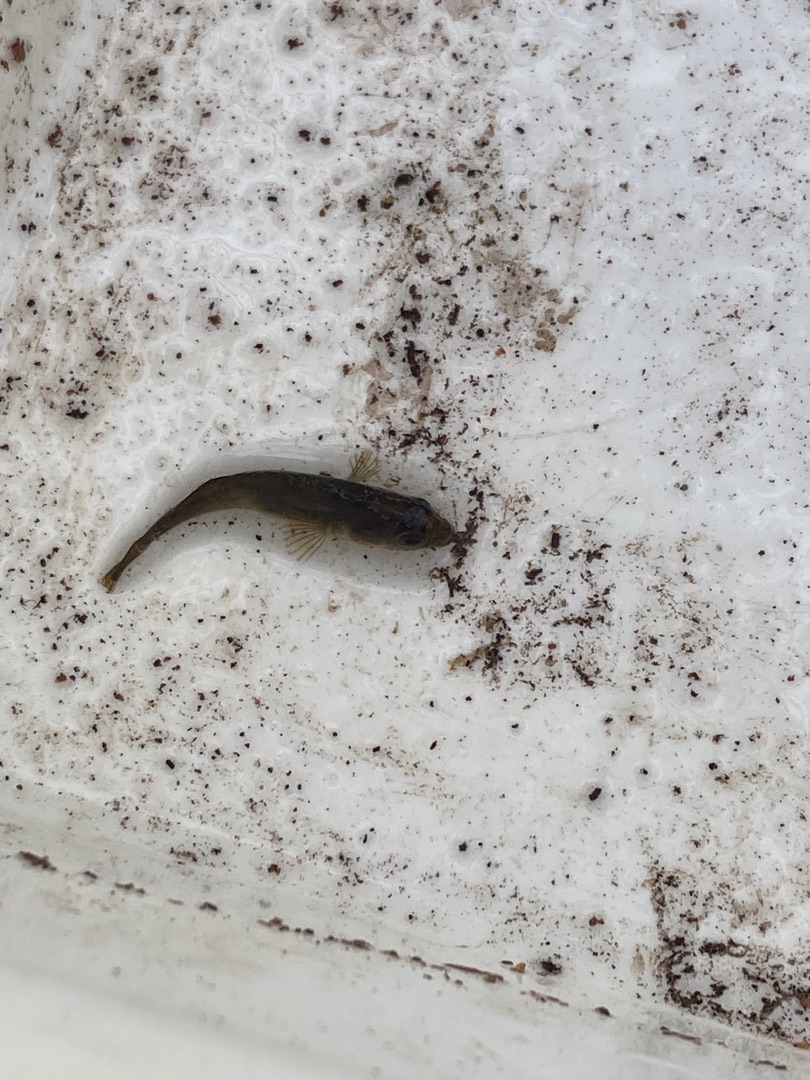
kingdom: Animalia
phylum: Chordata
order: Gasterosteiformes
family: Gasterosteidae
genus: Pungitius
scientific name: Pungitius pungitius
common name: Nipigget hundestejle
